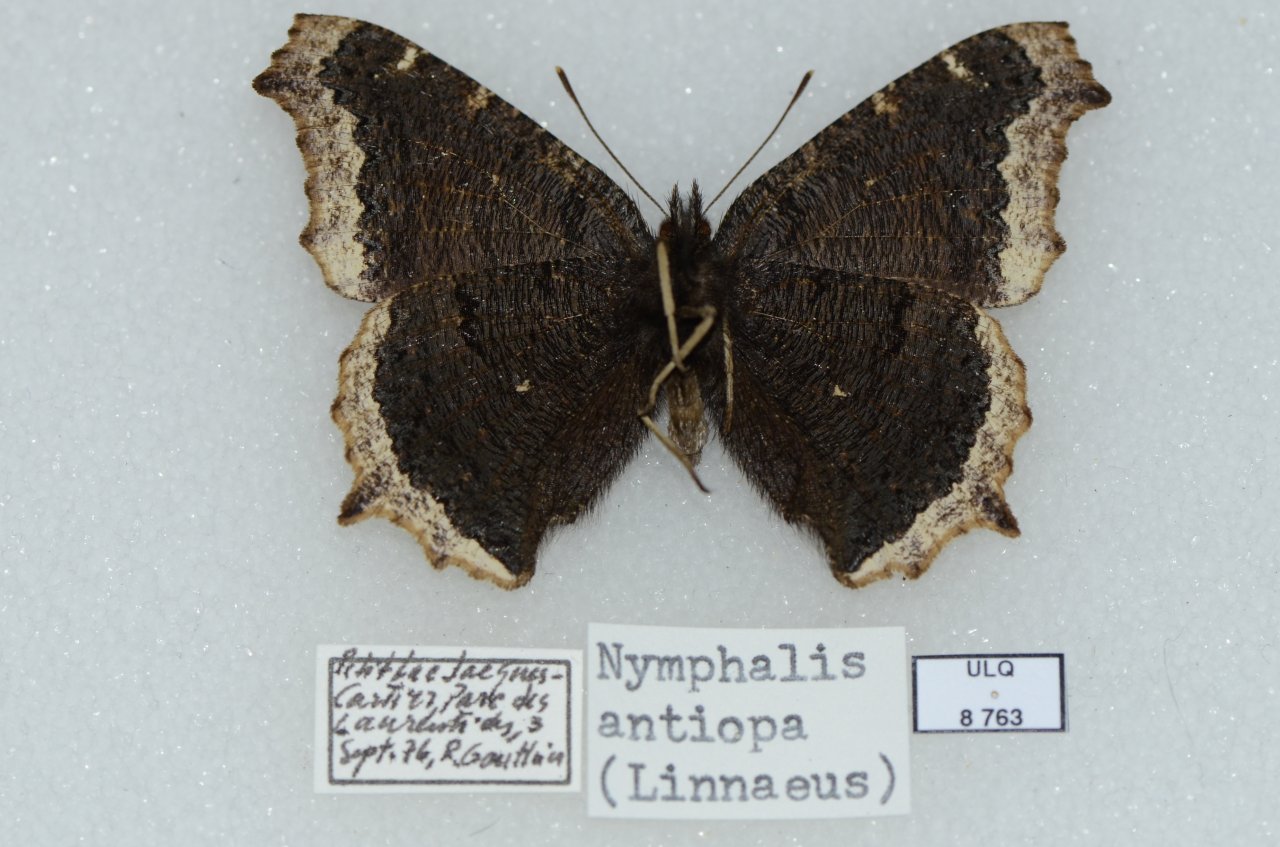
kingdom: Animalia
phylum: Arthropoda
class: Insecta
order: Lepidoptera
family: Nymphalidae
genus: Nymphalis
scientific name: Nymphalis antiopa
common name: Mourning Cloak
